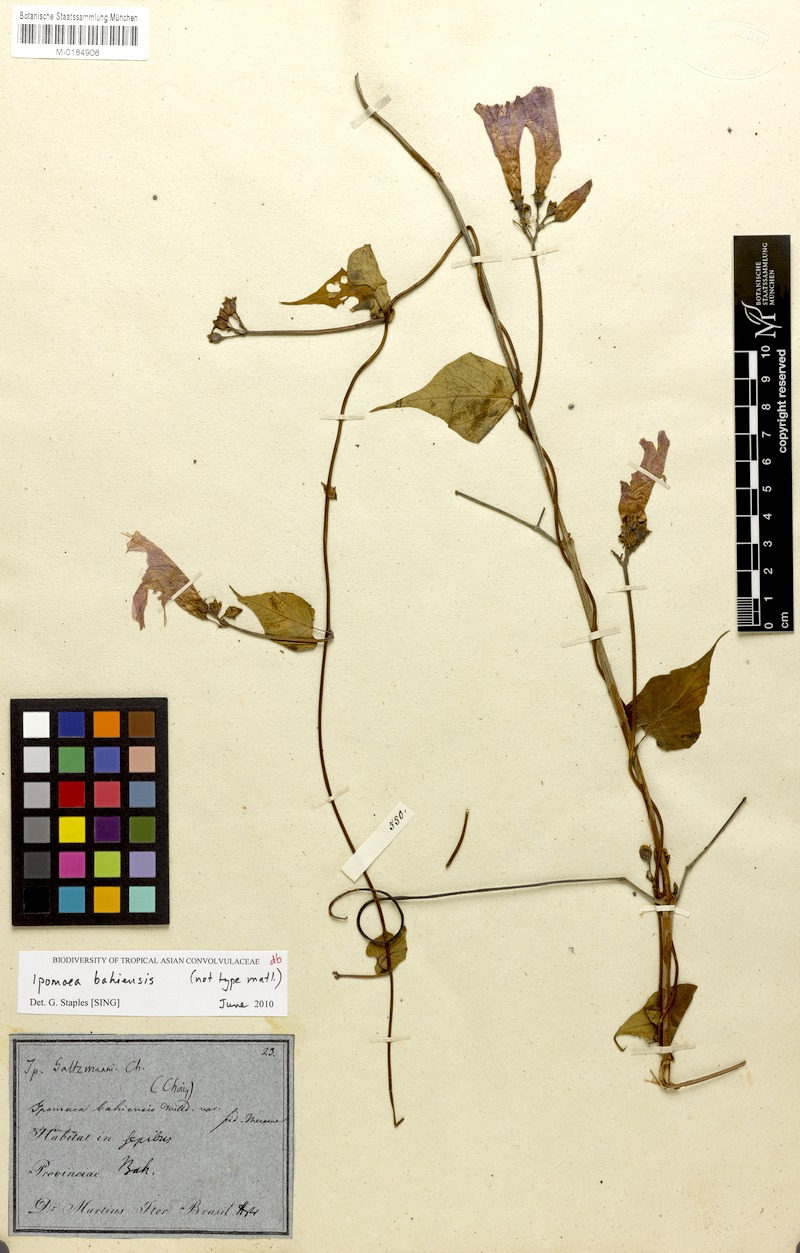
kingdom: Plantae
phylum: Tracheophyta
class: Magnoliopsida
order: Solanales
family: Convolvulaceae
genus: Ipomoea
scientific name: Ipomoea bahiensis
